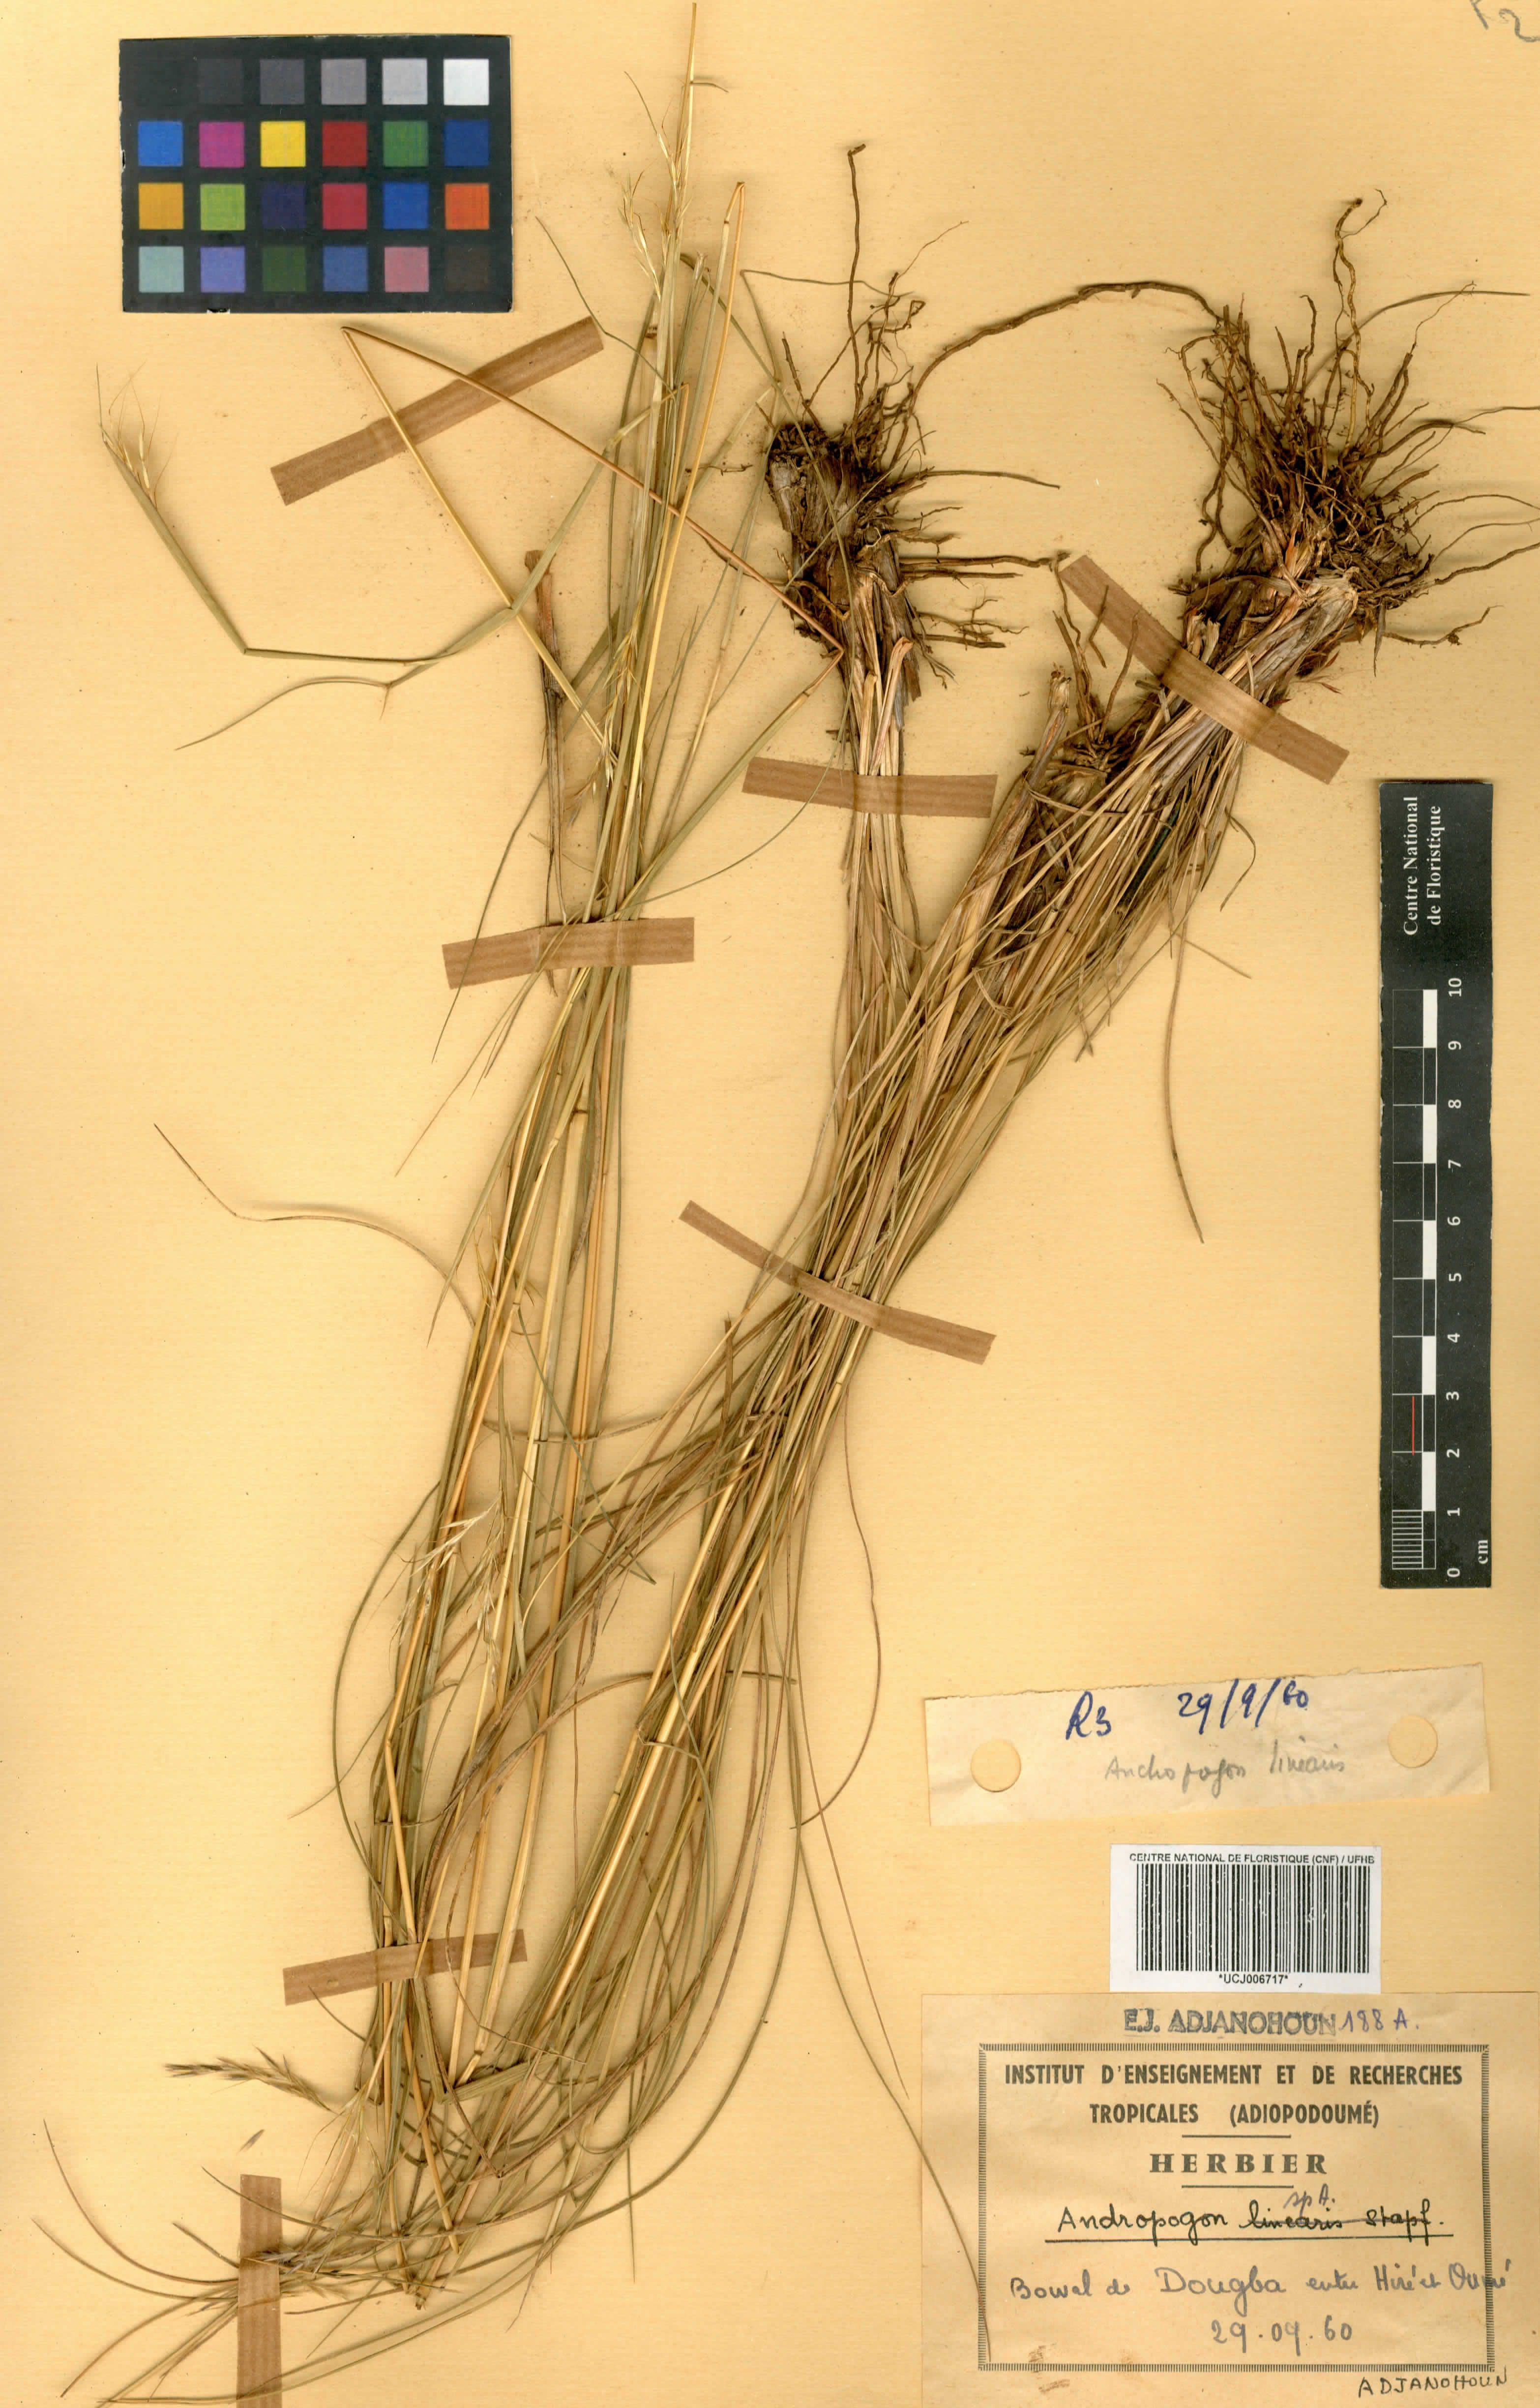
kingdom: Plantae
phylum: Tracheophyta
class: Liliopsida
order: Poales
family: Poaceae
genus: Andropogon
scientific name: Andropogon pseudapricus
